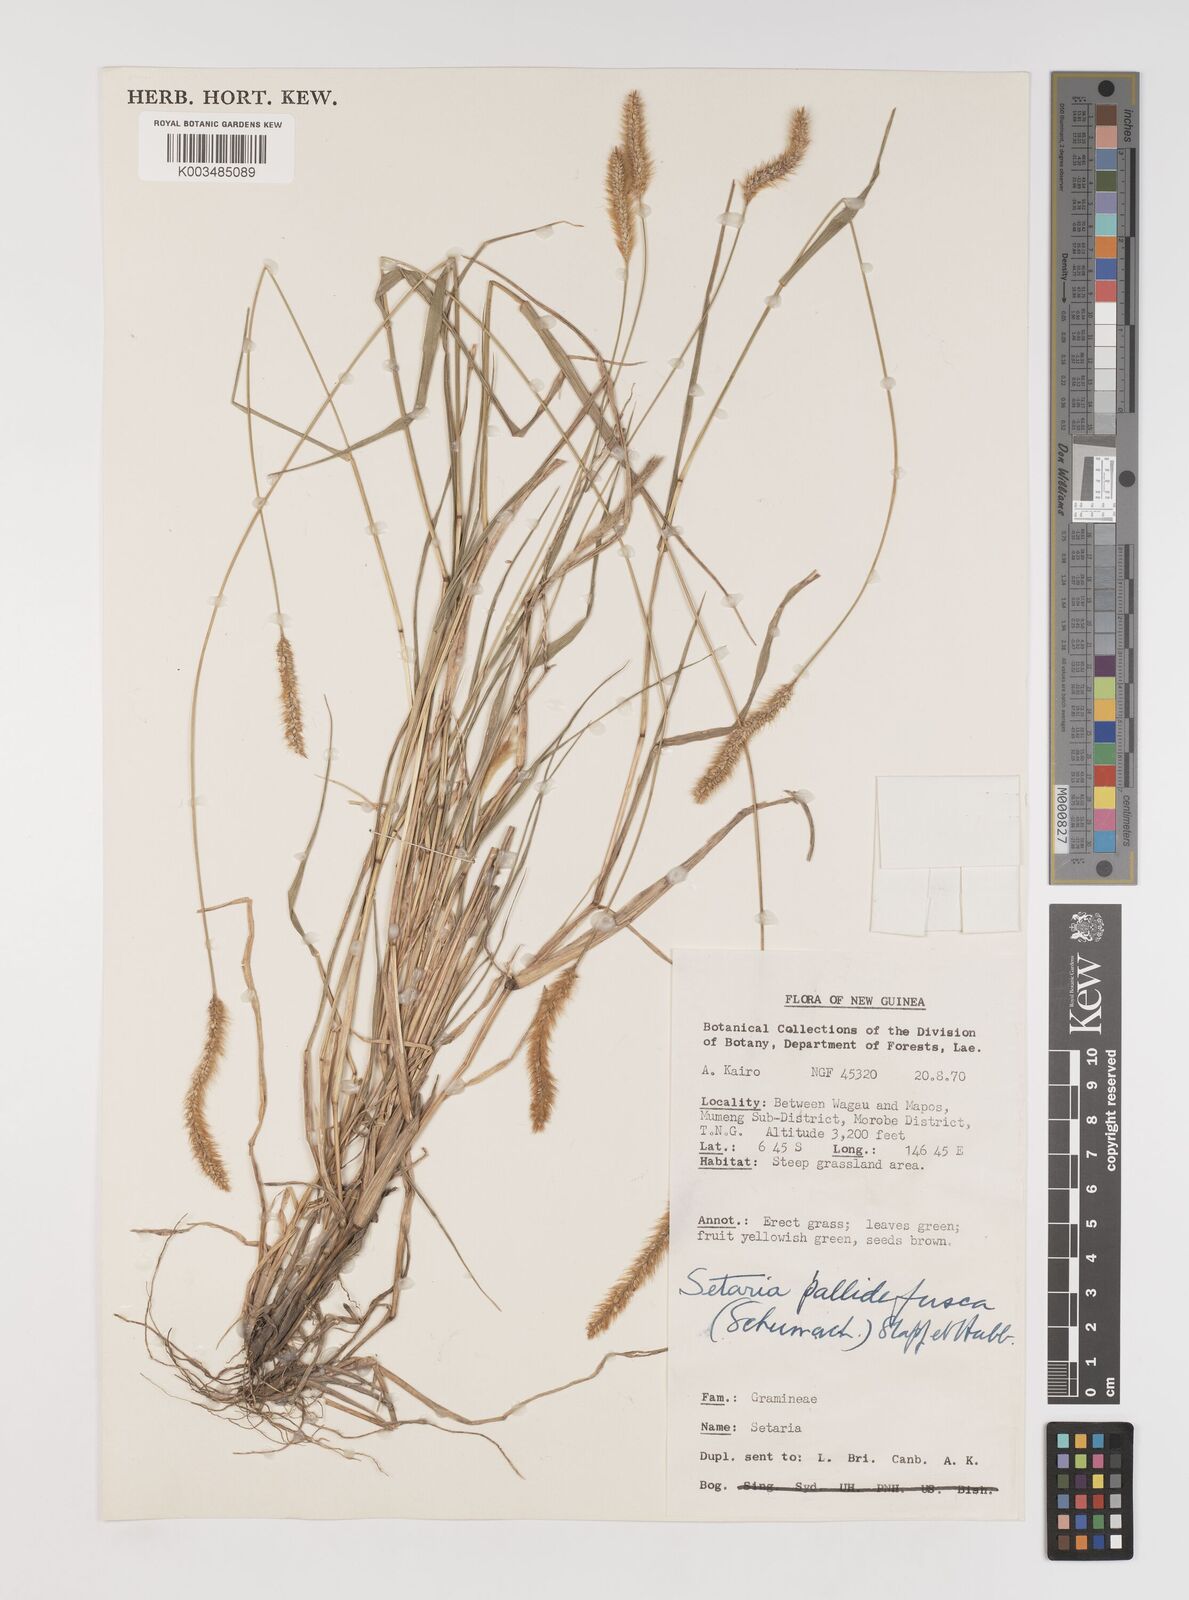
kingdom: Plantae
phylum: Tracheophyta
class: Liliopsida
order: Poales
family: Poaceae
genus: Setaria
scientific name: Setaria parviflora
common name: Knotroot bristle-grass
